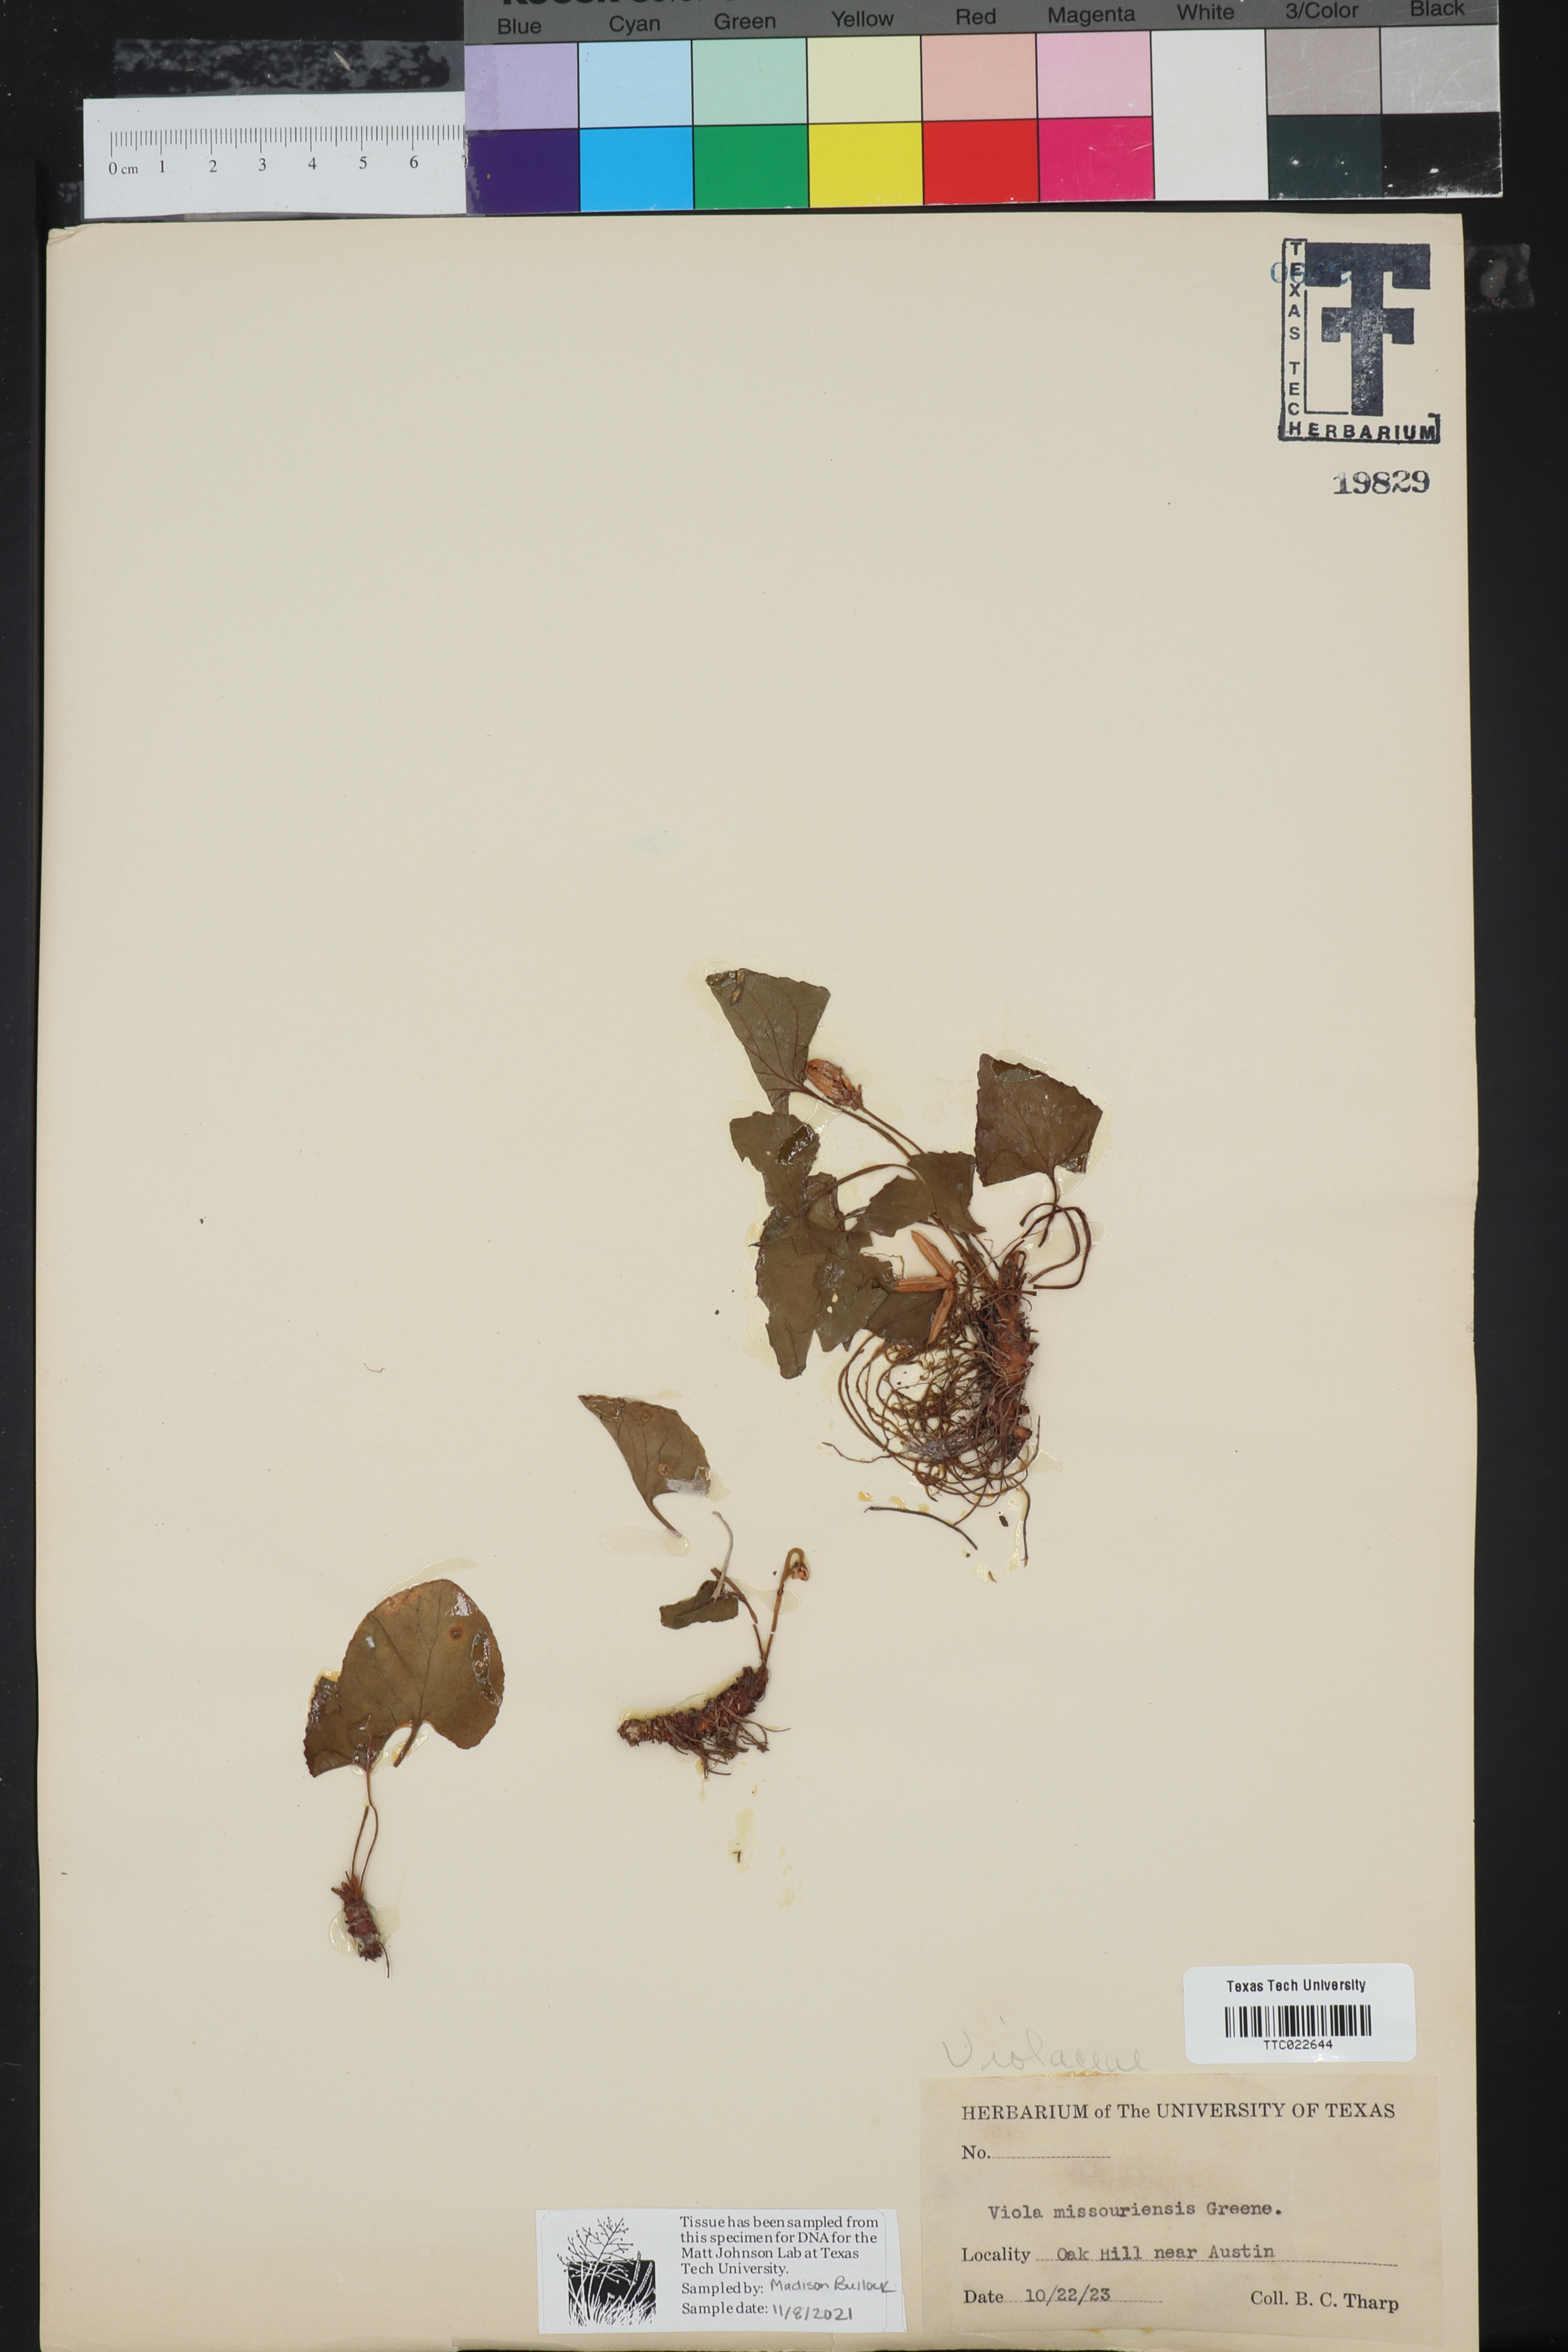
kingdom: Plantae
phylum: Tracheophyta
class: Magnoliopsida
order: Malpighiales
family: Violaceae
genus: Viola
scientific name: Viola missouriensis
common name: Missouri violet
